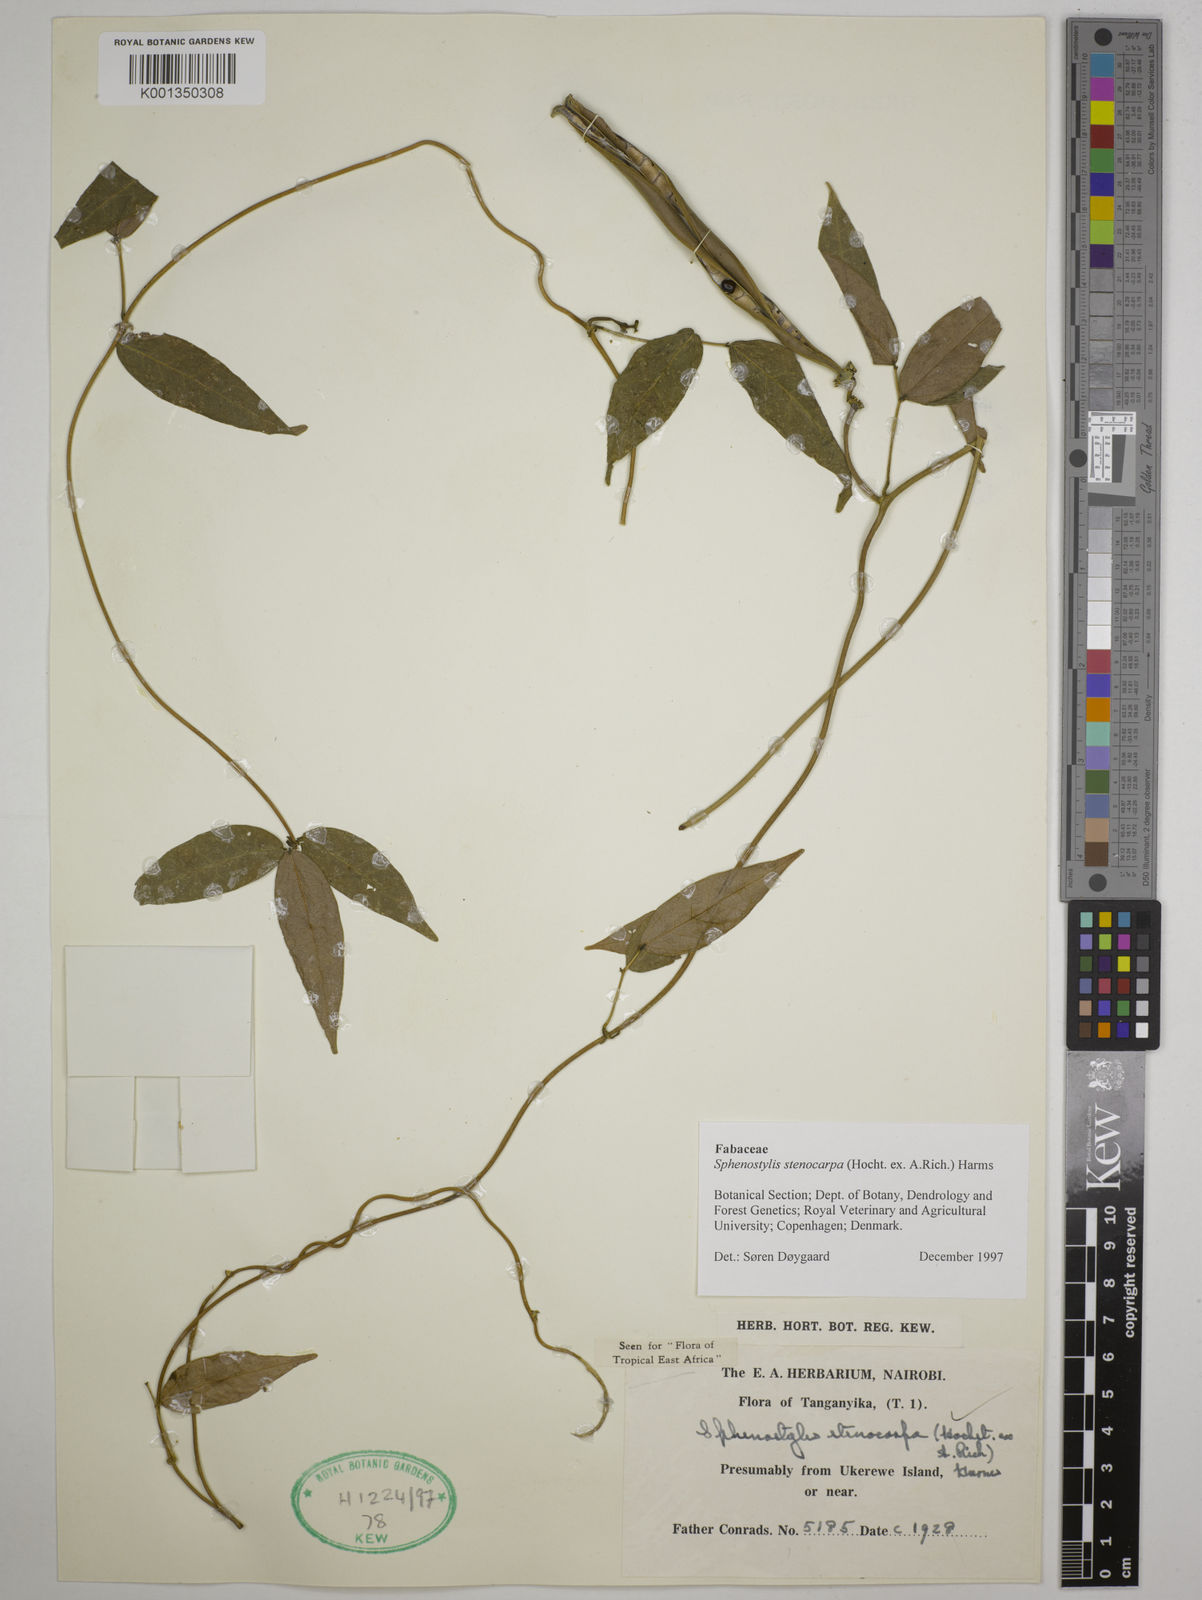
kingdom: Plantae
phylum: Tracheophyta
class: Magnoliopsida
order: Fabales
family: Fabaceae
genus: Sphenostylis
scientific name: Sphenostylis stenocarpa
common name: Yam-pea
